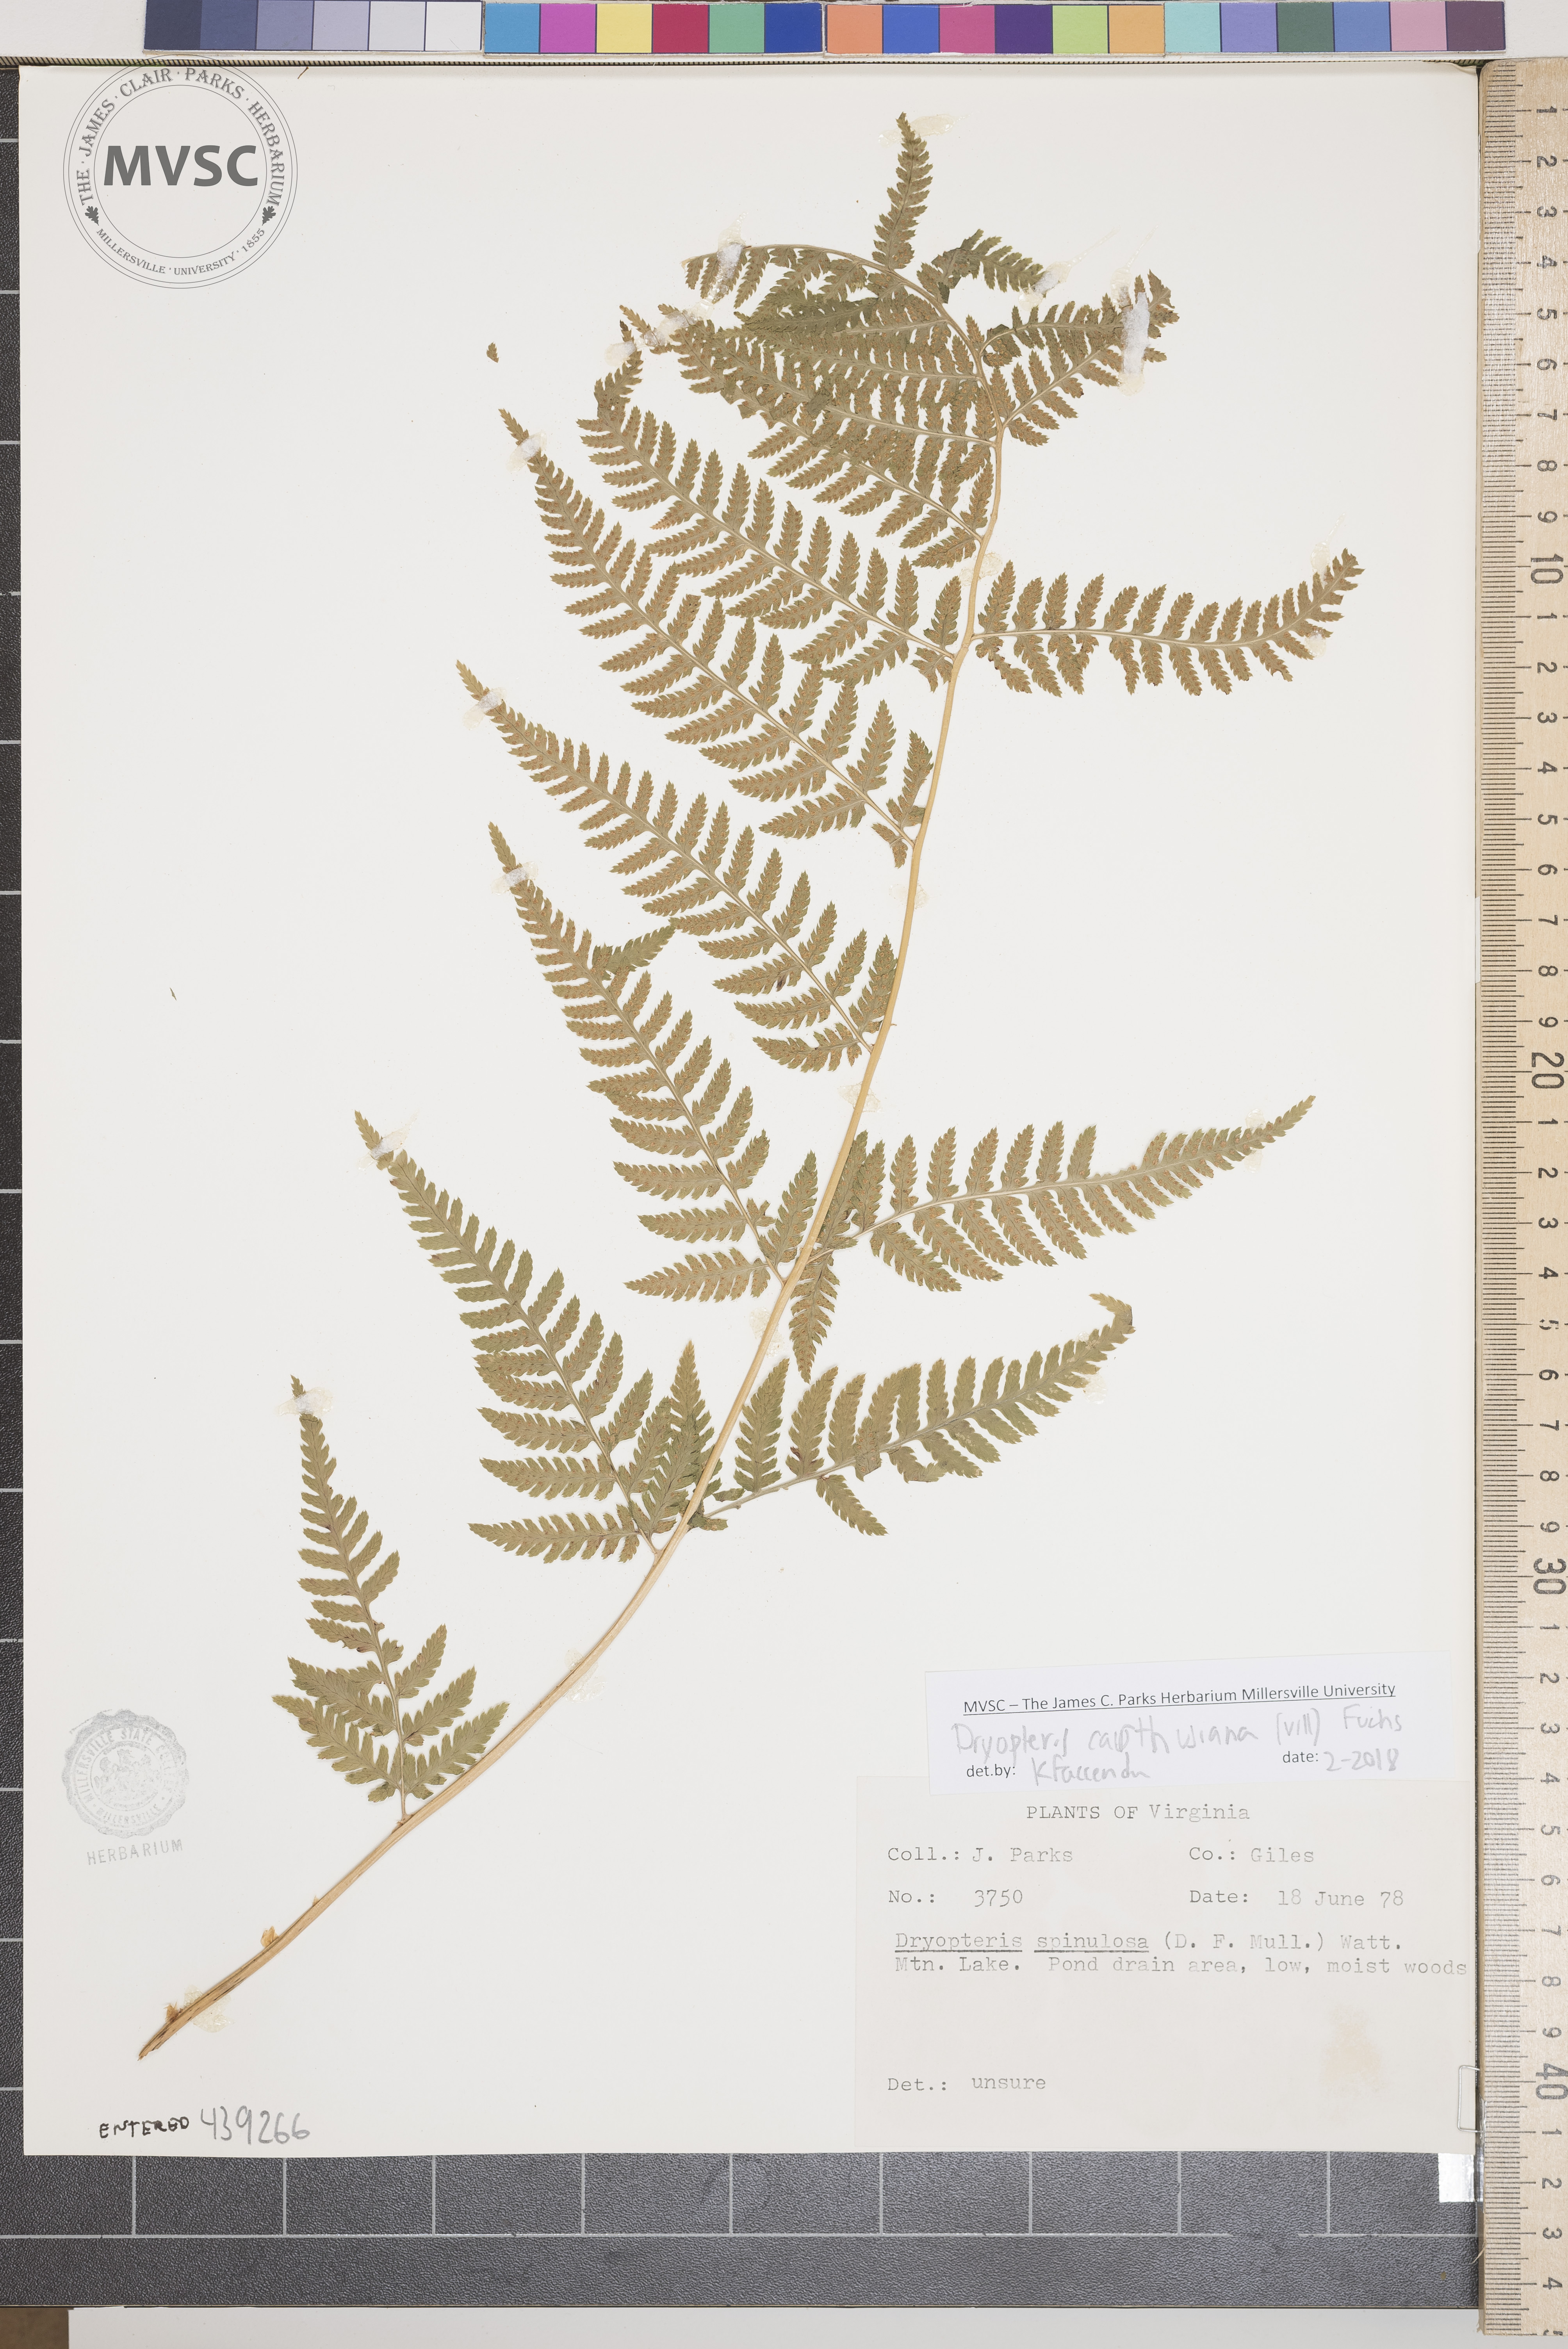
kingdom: Plantae
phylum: Tracheophyta
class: Polypodiopsida
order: Polypodiales
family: Dryopteridaceae
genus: Dryopteris
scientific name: Dryopteris carthusiana
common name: Narrow buckler-fern
